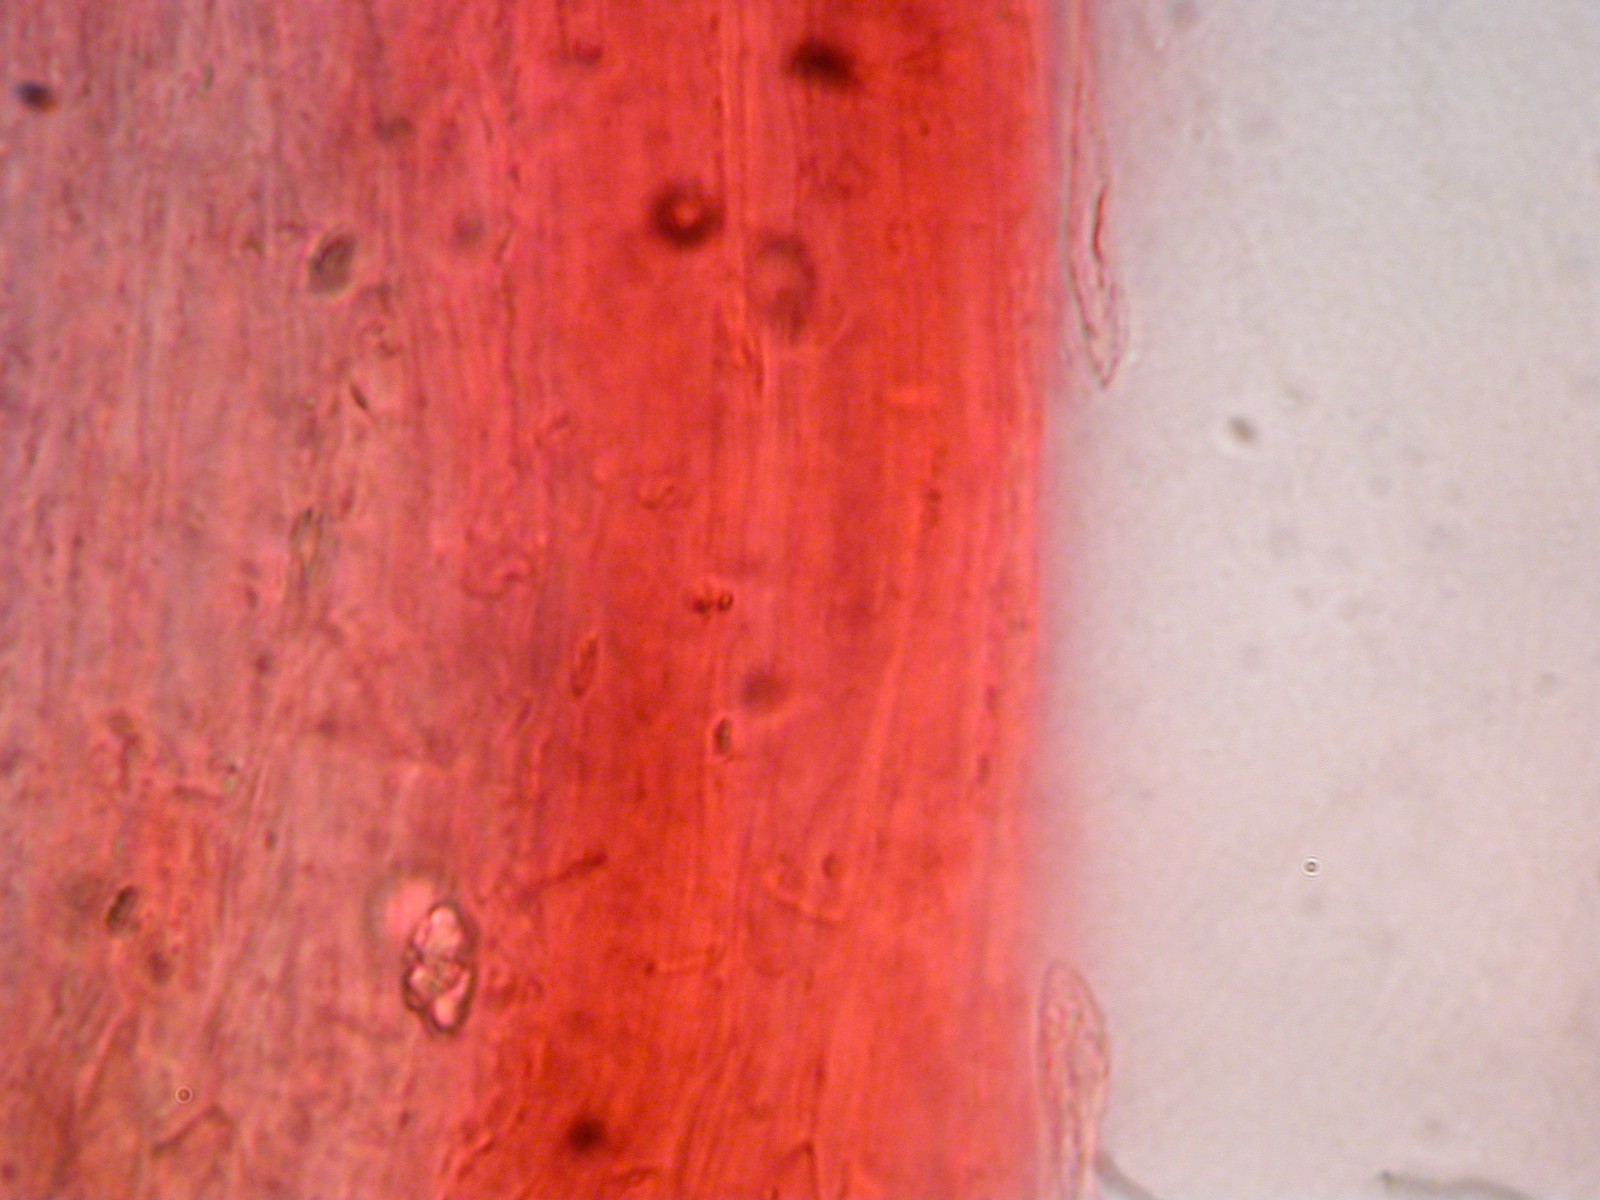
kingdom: Fungi
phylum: Basidiomycota
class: Agaricomycetes
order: Agaricales
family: Entolomataceae
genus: Entoloma
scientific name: Entoloma
